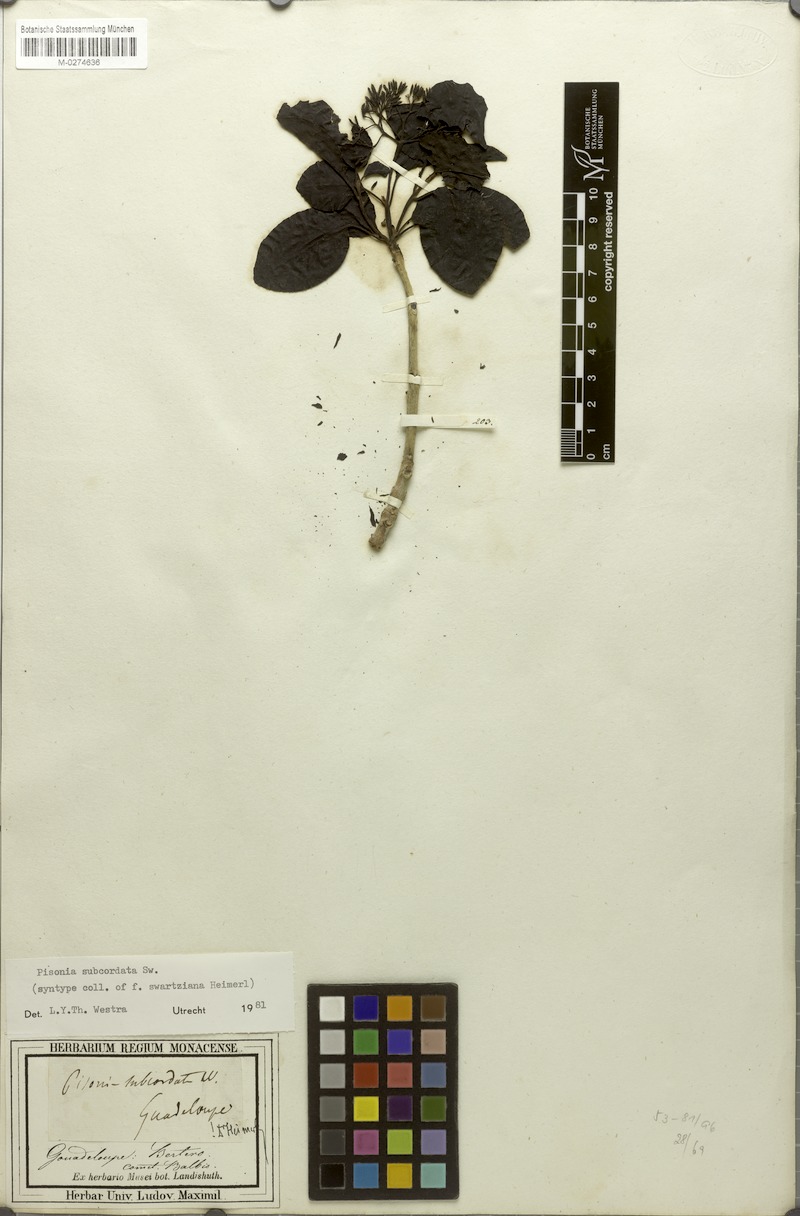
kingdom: Plantae
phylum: Tracheophyta
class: Magnoliopsida
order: Caryophyllales
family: Nyctaginaceae
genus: Pisonia
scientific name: Pisonia subcordata
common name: Mampoo
